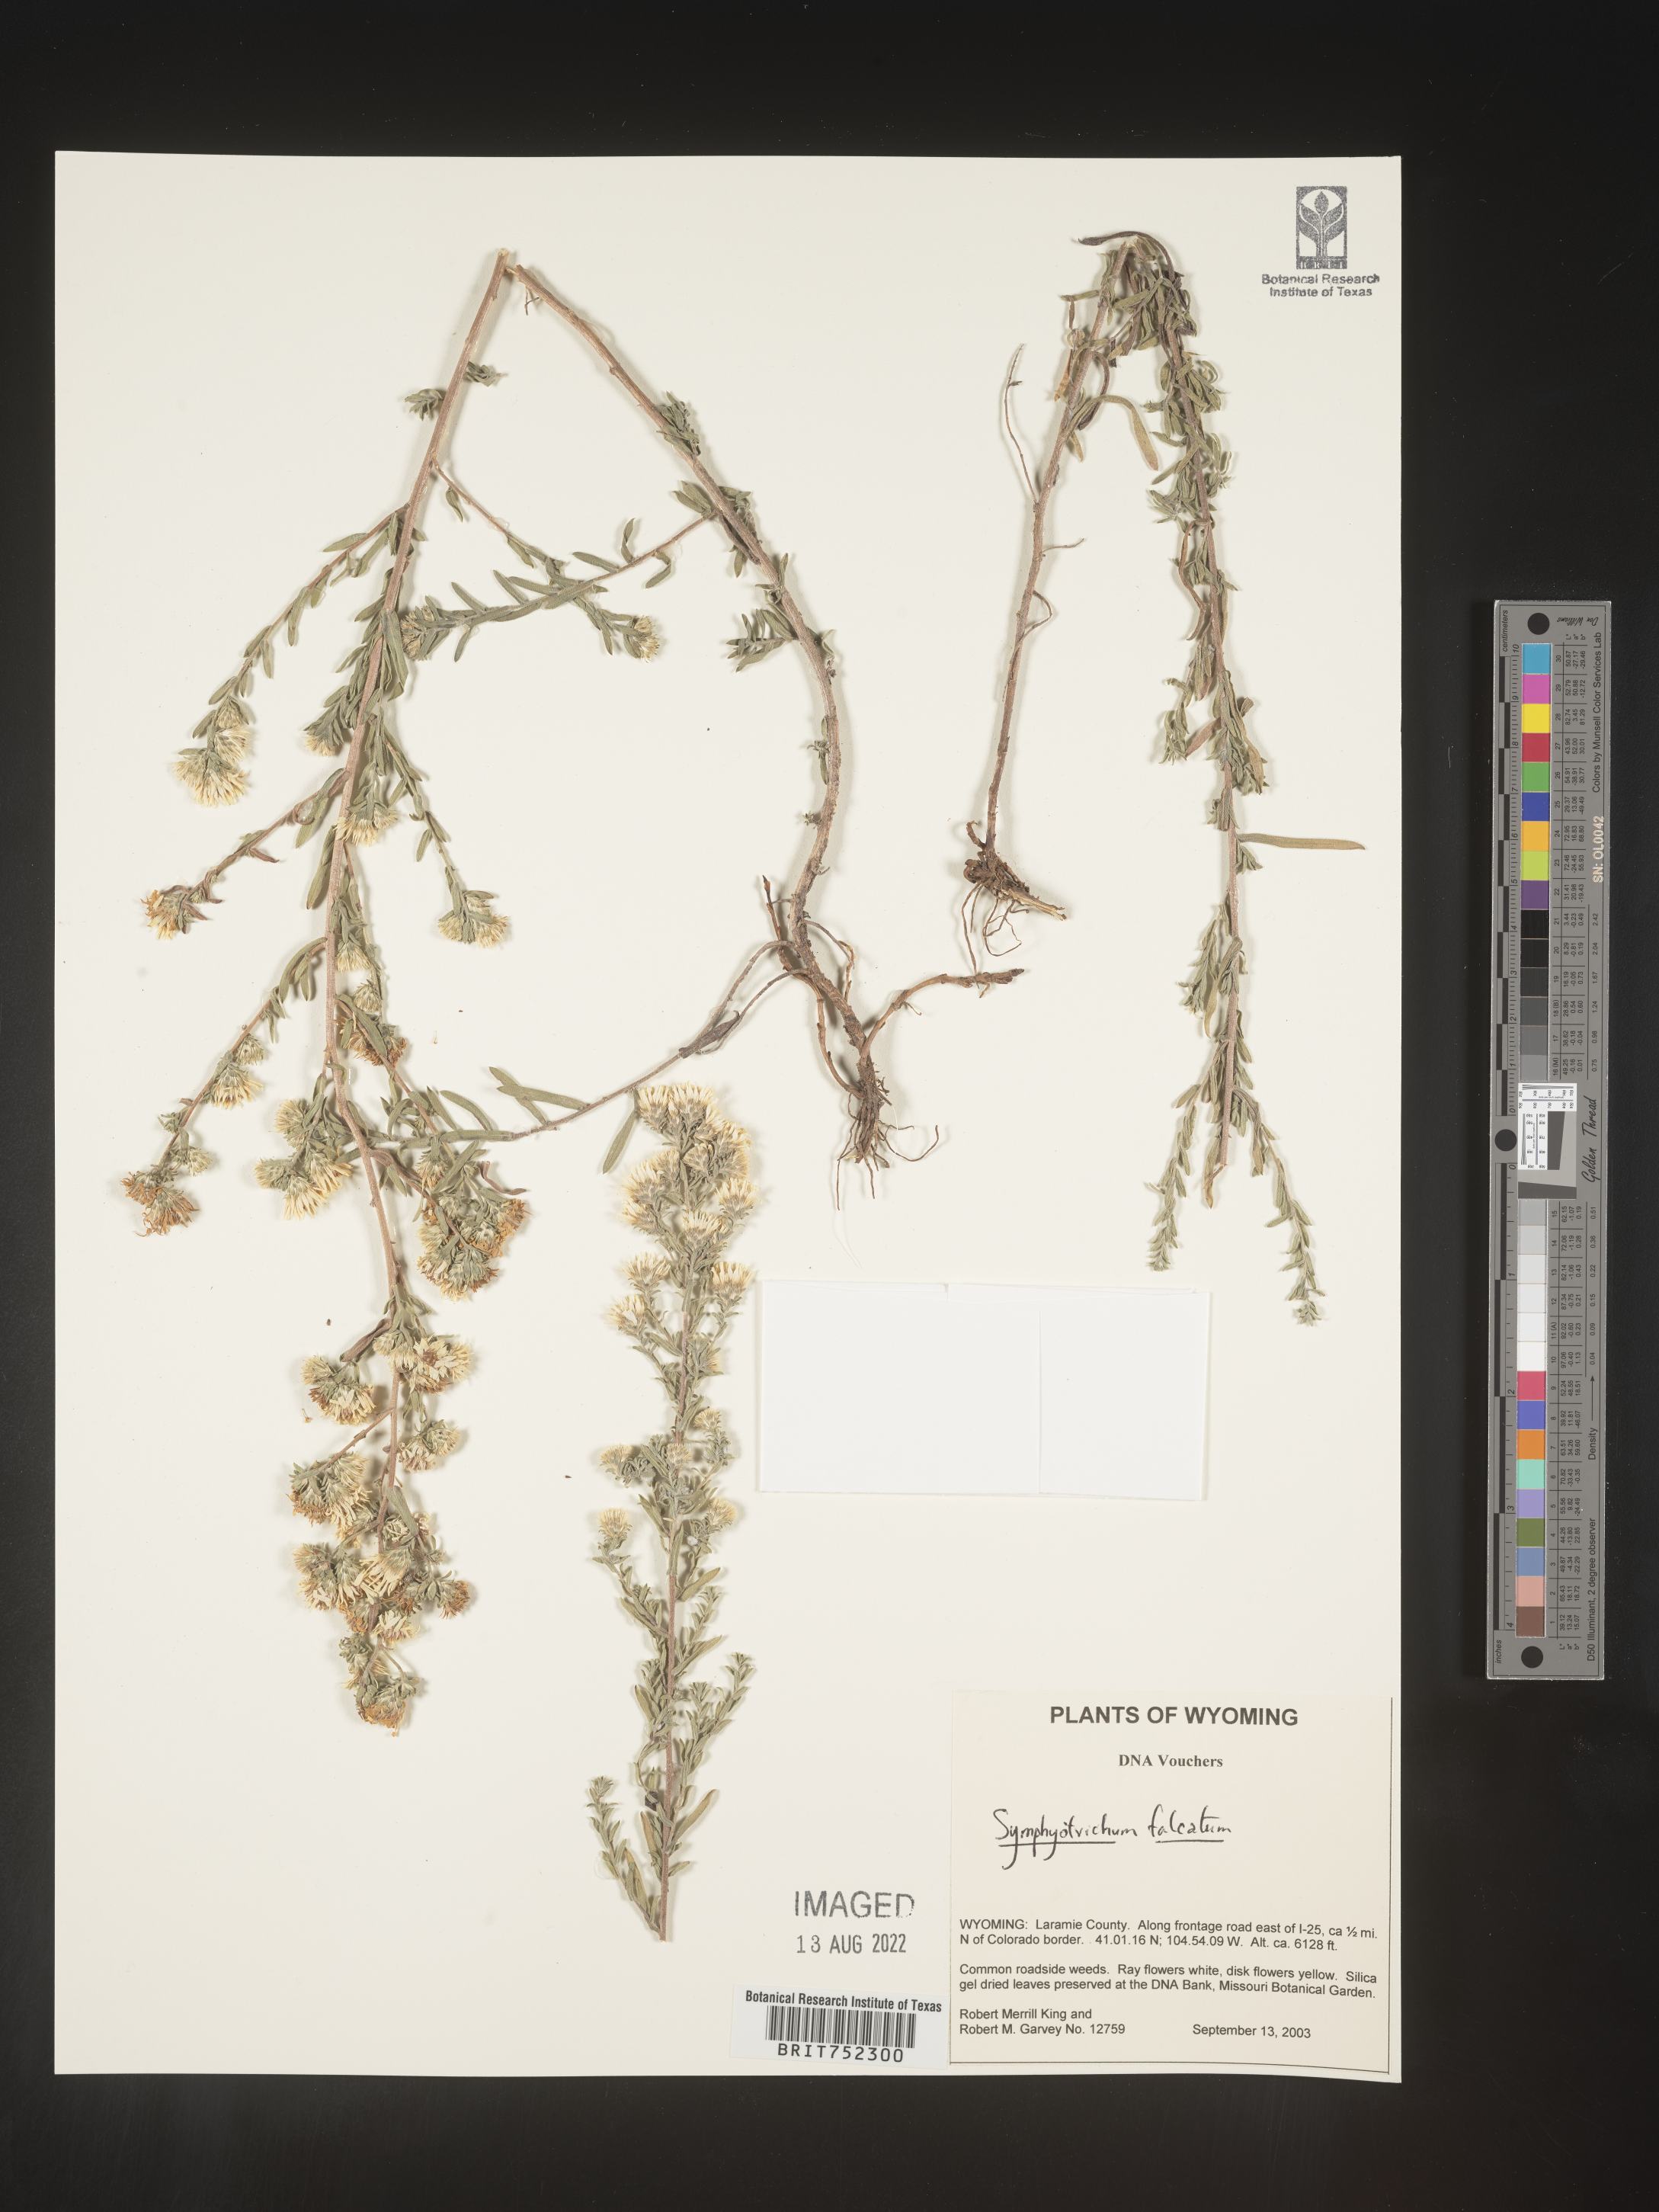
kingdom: Plantae
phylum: Tracheophyta
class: Magnoliopsida
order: Asterales
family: Asteraceae
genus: Symphyotrichum
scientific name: Symphyotrichum falcatum
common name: Creeping white prairie aster
